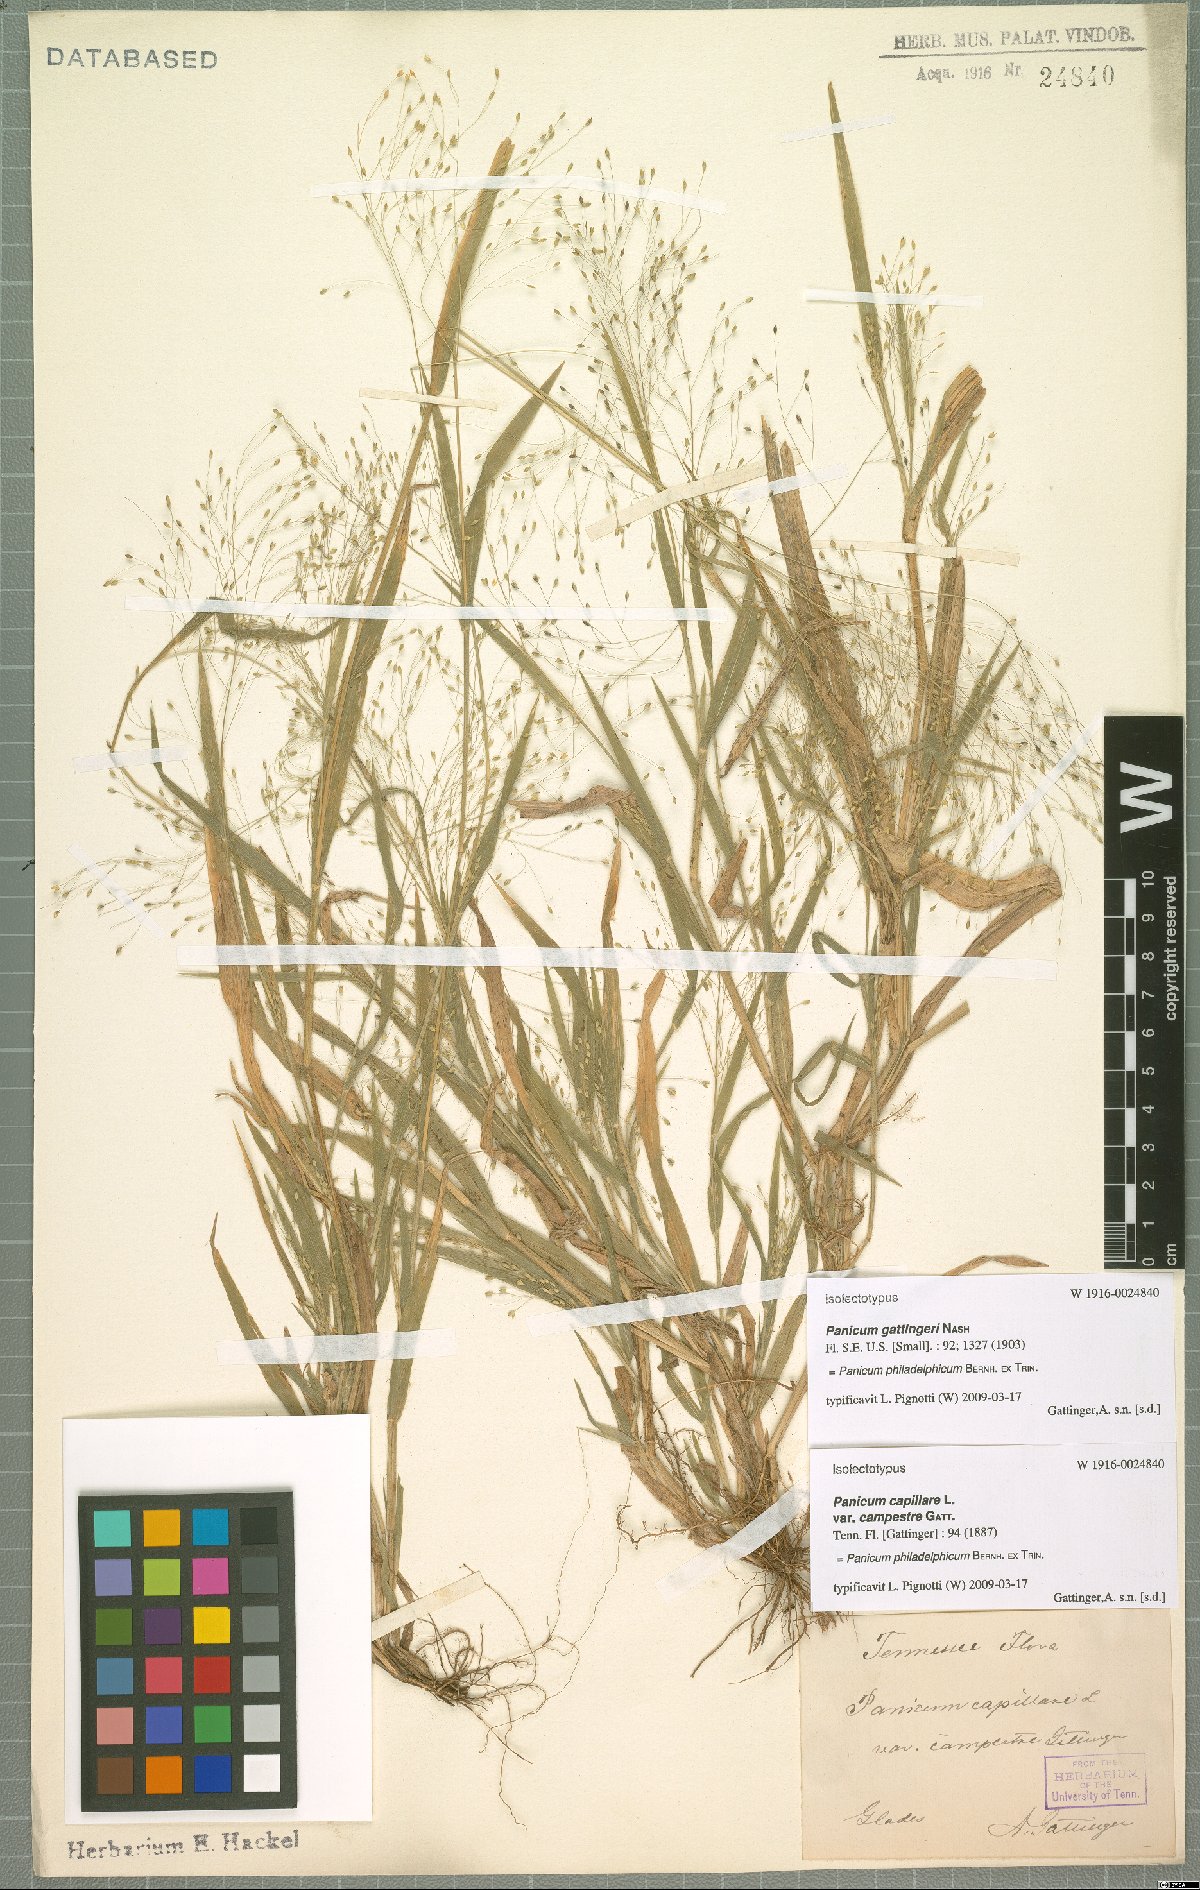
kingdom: Plantae
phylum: Tracheophyta
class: Liliopsida
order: Poales
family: Poaceae
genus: Panicum
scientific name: Panicum philadelphicum
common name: Philadelphia witchgrass
